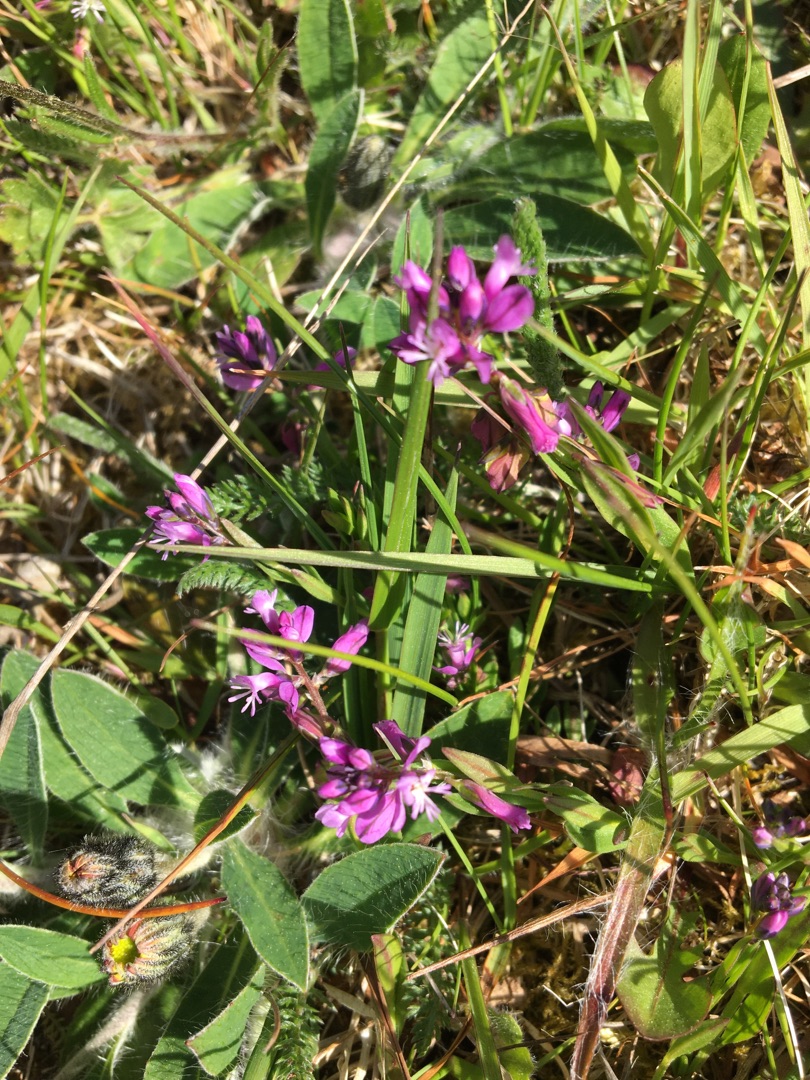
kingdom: Plantae
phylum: Tracheophyta
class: Magnoliopsida
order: Fabales
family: Polygalaceae
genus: Polygala
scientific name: Polygala vulgaris
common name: Almindelig mælkeurt
